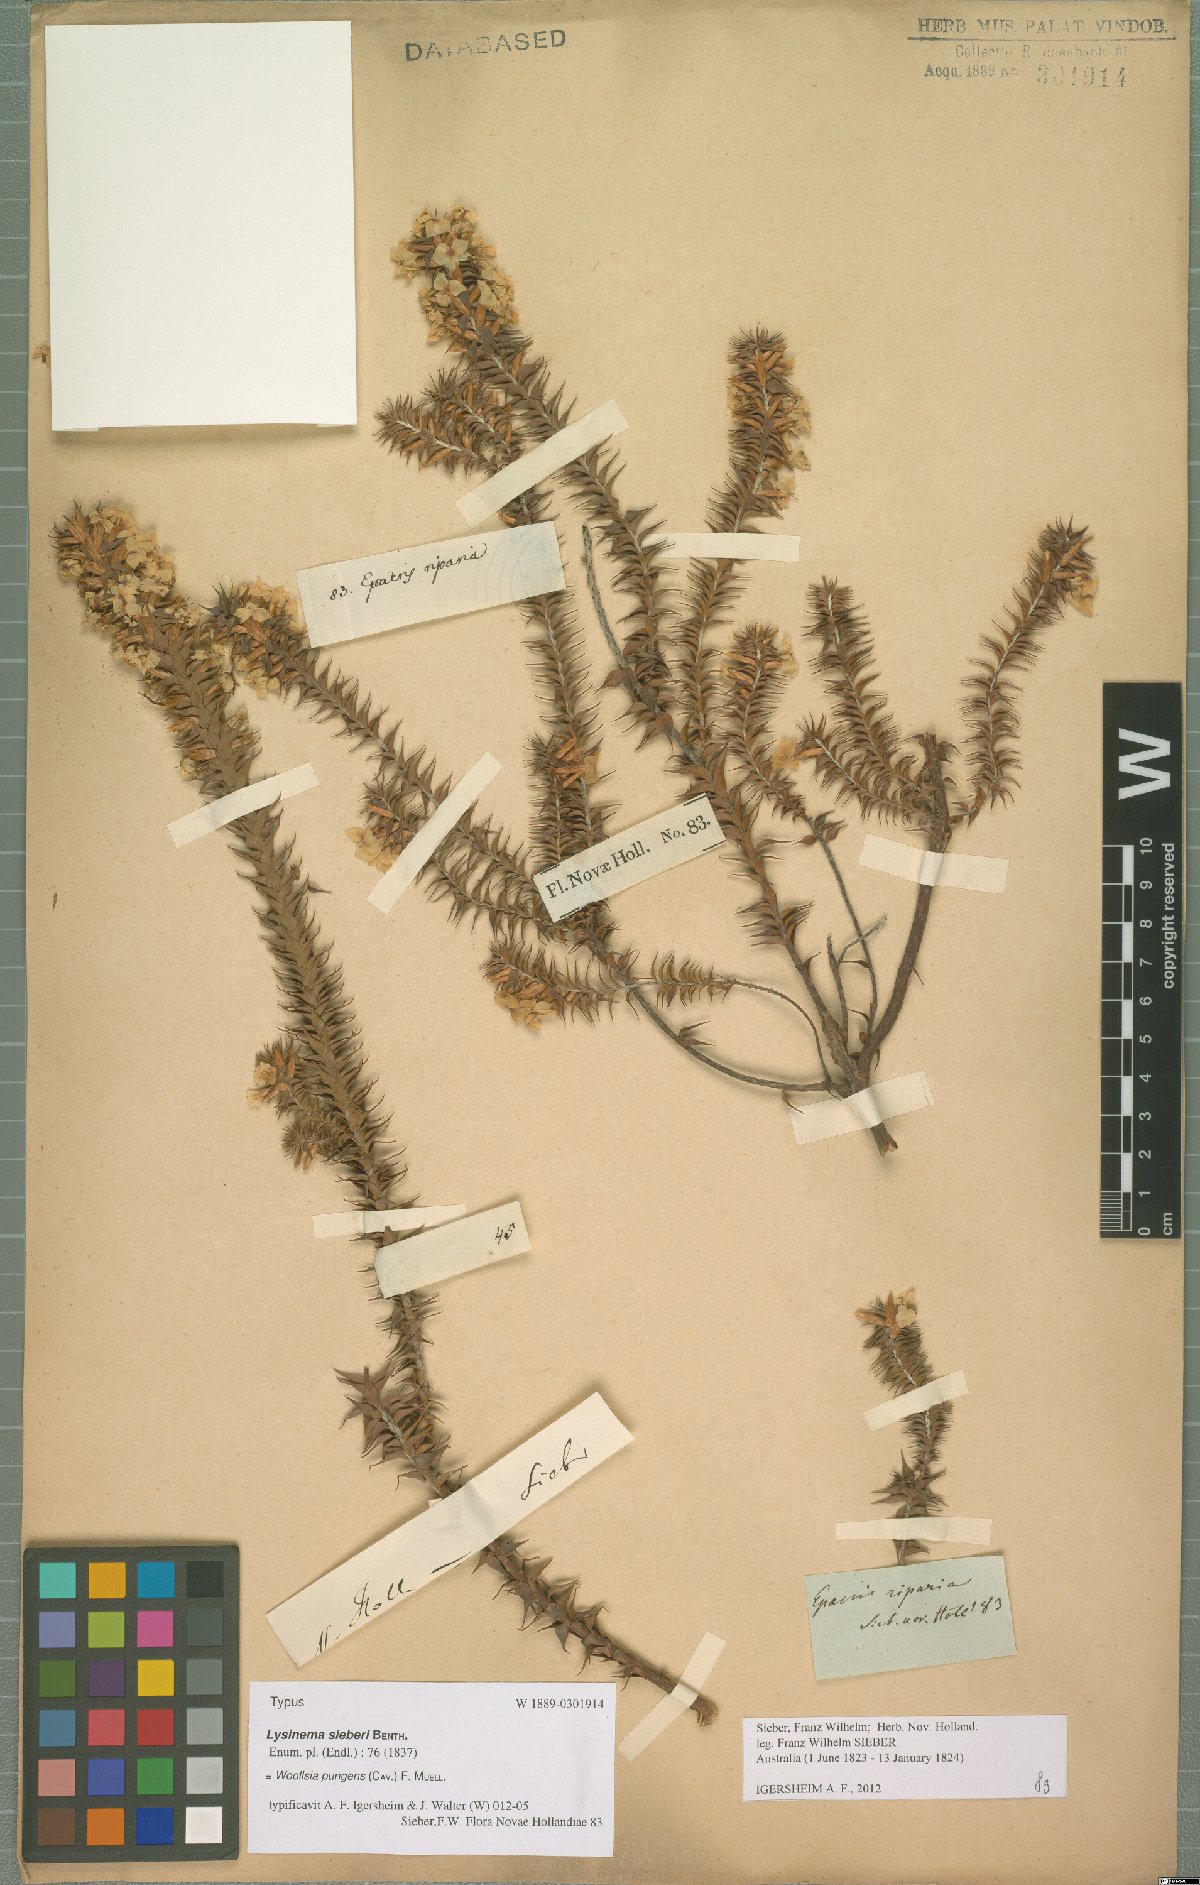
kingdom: Plantae
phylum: Tracheophyta
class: Magnoliopsida
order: Ericales
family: Ericaceae
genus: Woollsia
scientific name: Woollsia pungens
